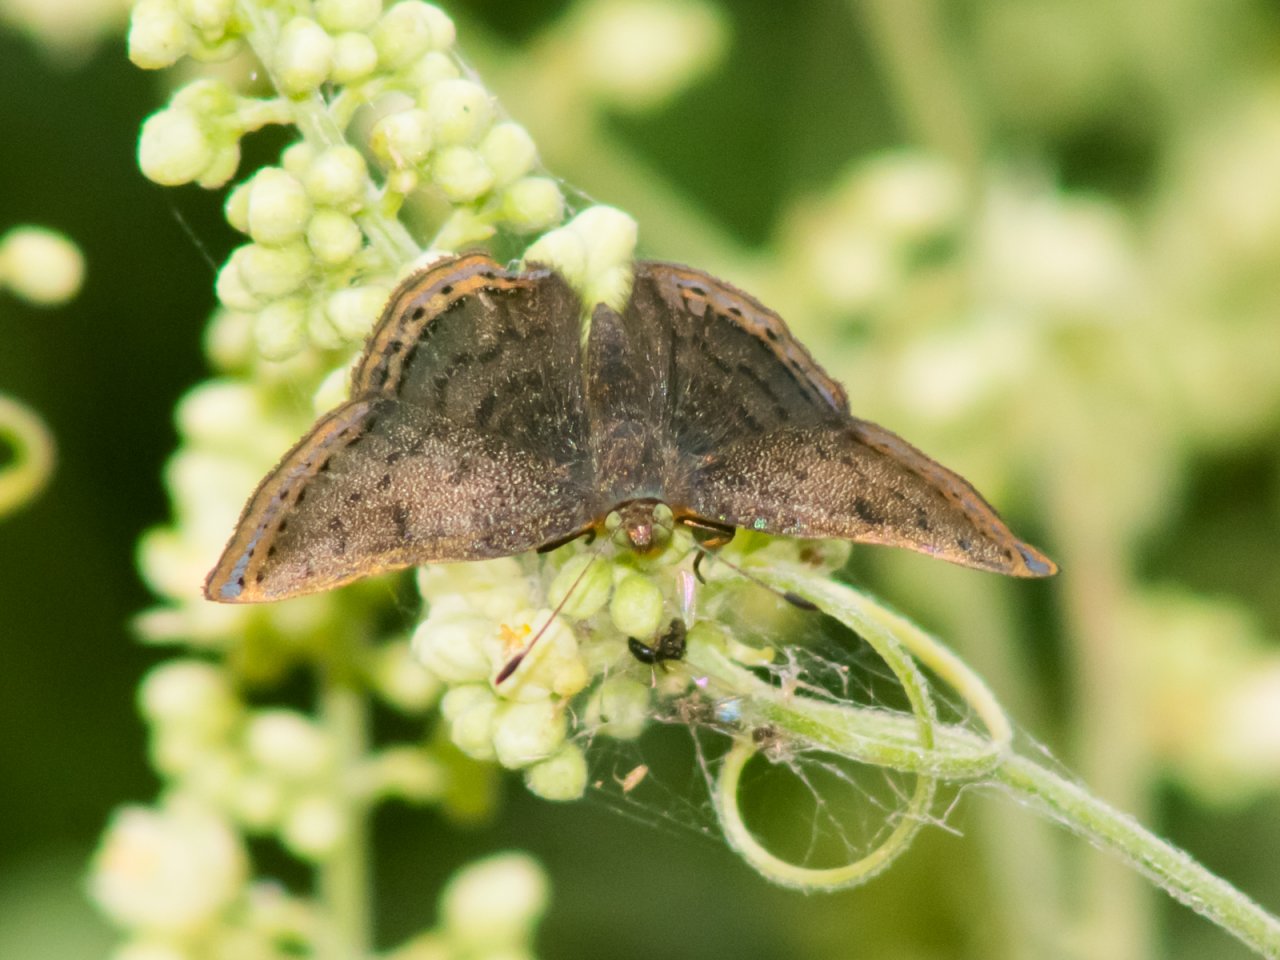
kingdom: Animalia
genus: Caria
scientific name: Caria ino
